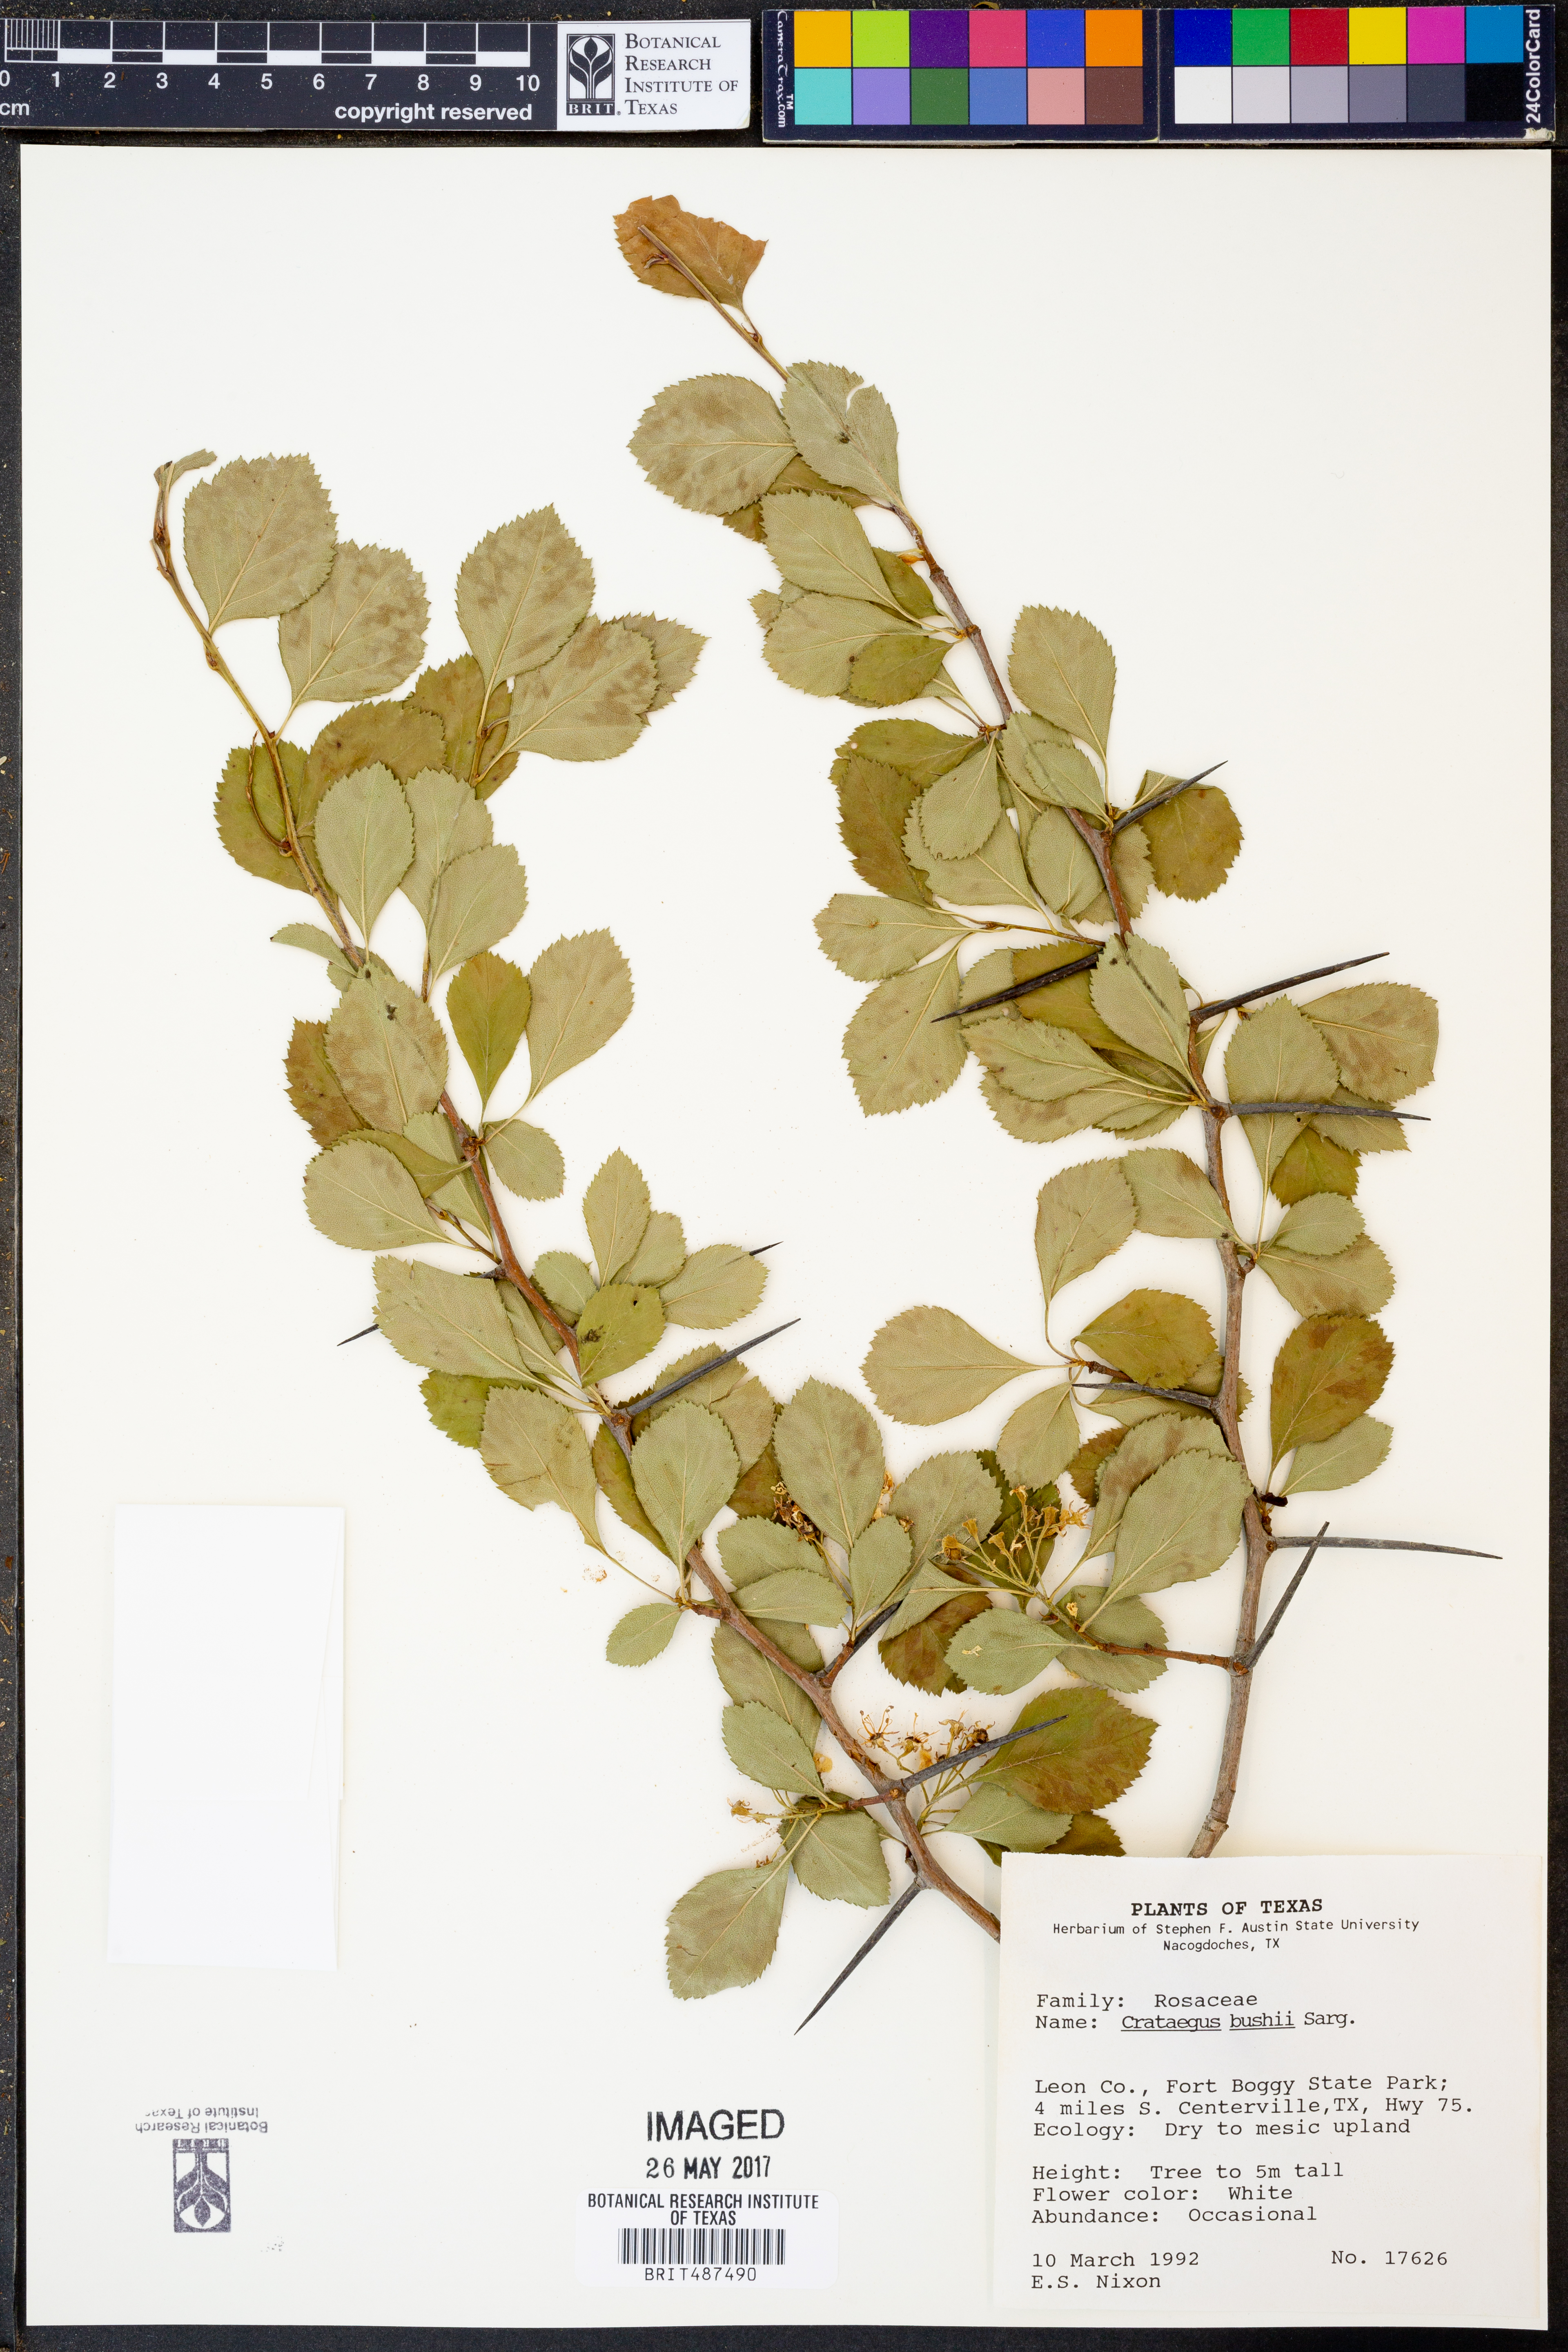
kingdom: Plantae
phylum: Tracheophyta
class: Magnoliopsida
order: Rosales
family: Rosaceae
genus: Crataegus
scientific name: Crataegus crus-galli
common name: Cockspurthorn
